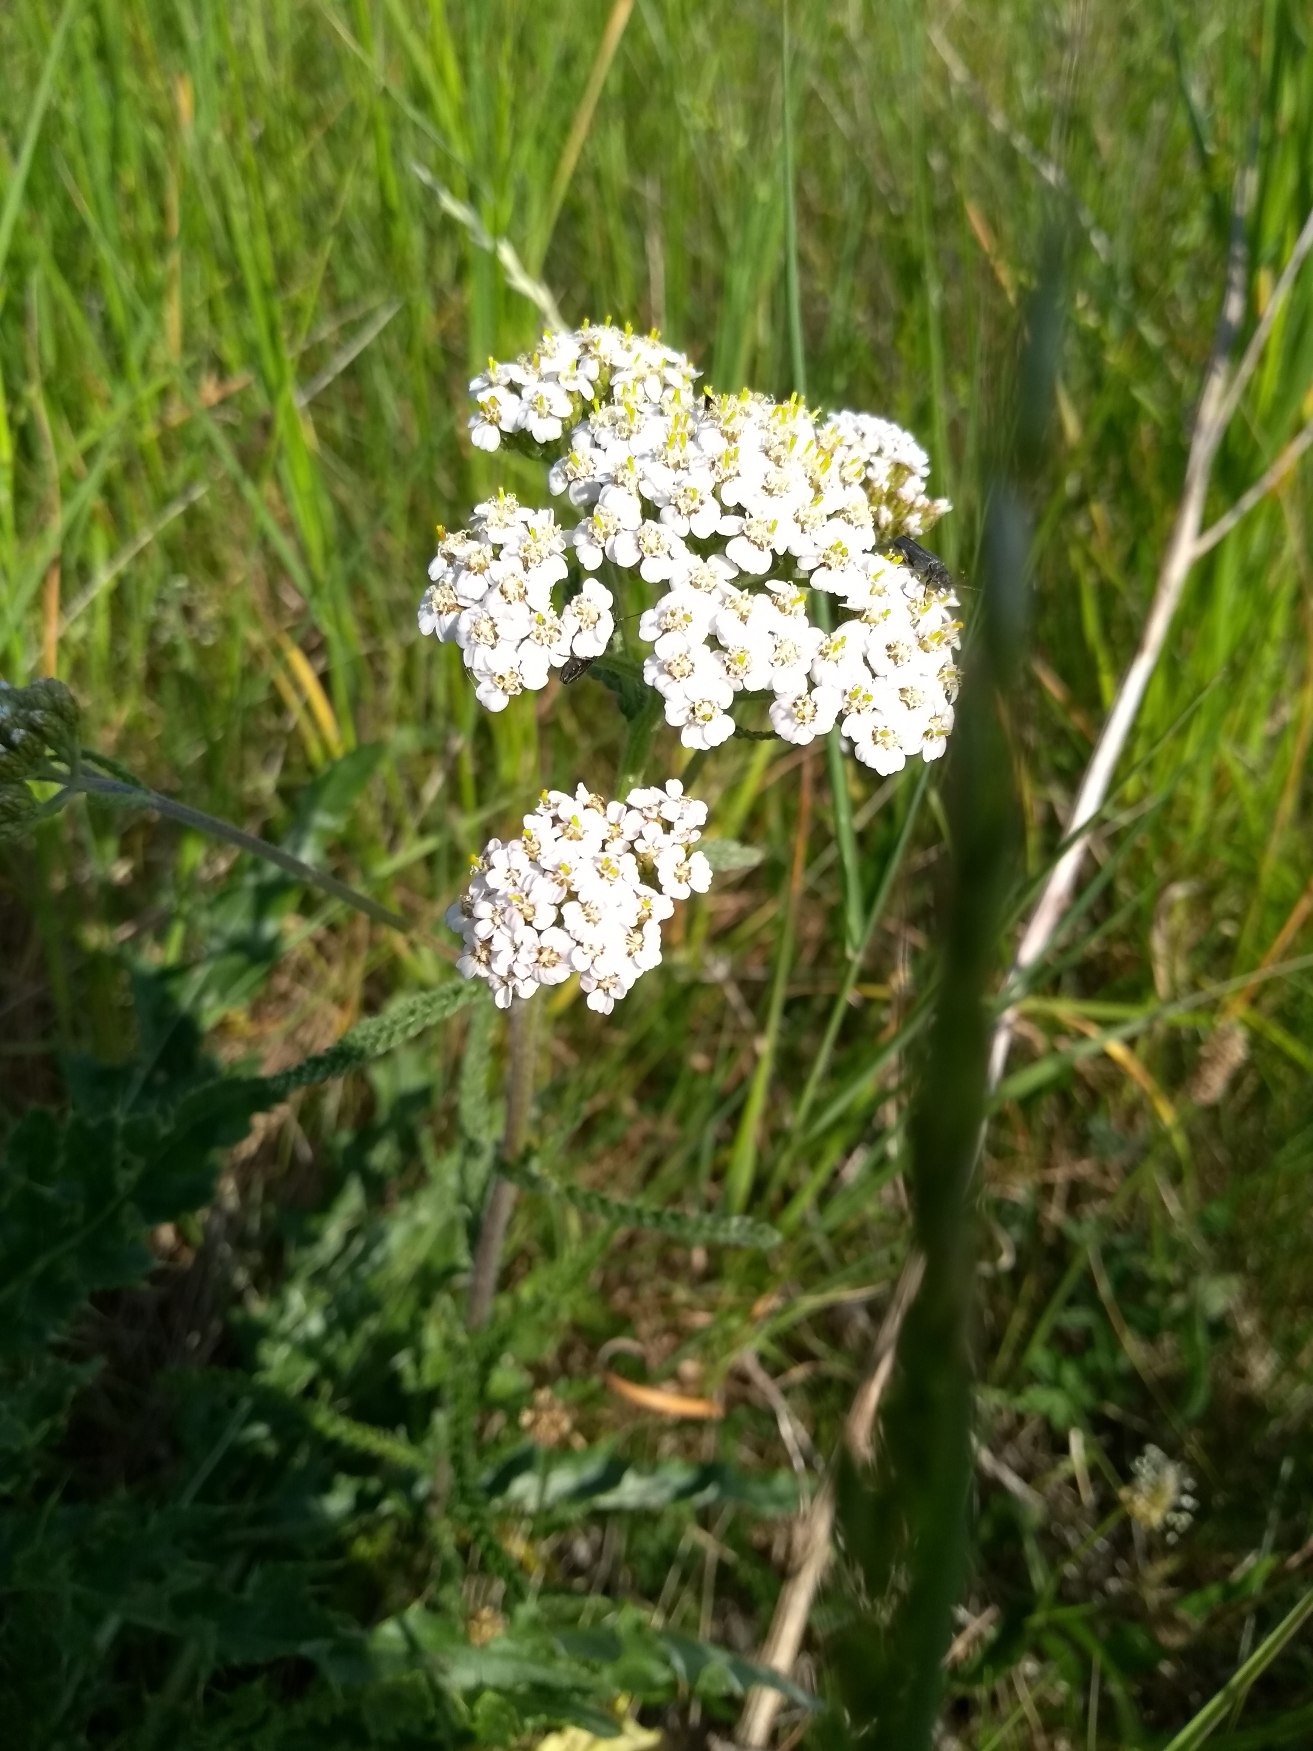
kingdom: Plantae
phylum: Tracheophyta
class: Magnoliopsida
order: Asterales
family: Asteraceae
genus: Achillea
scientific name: Achillea millefolium
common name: Almindelig røllike
